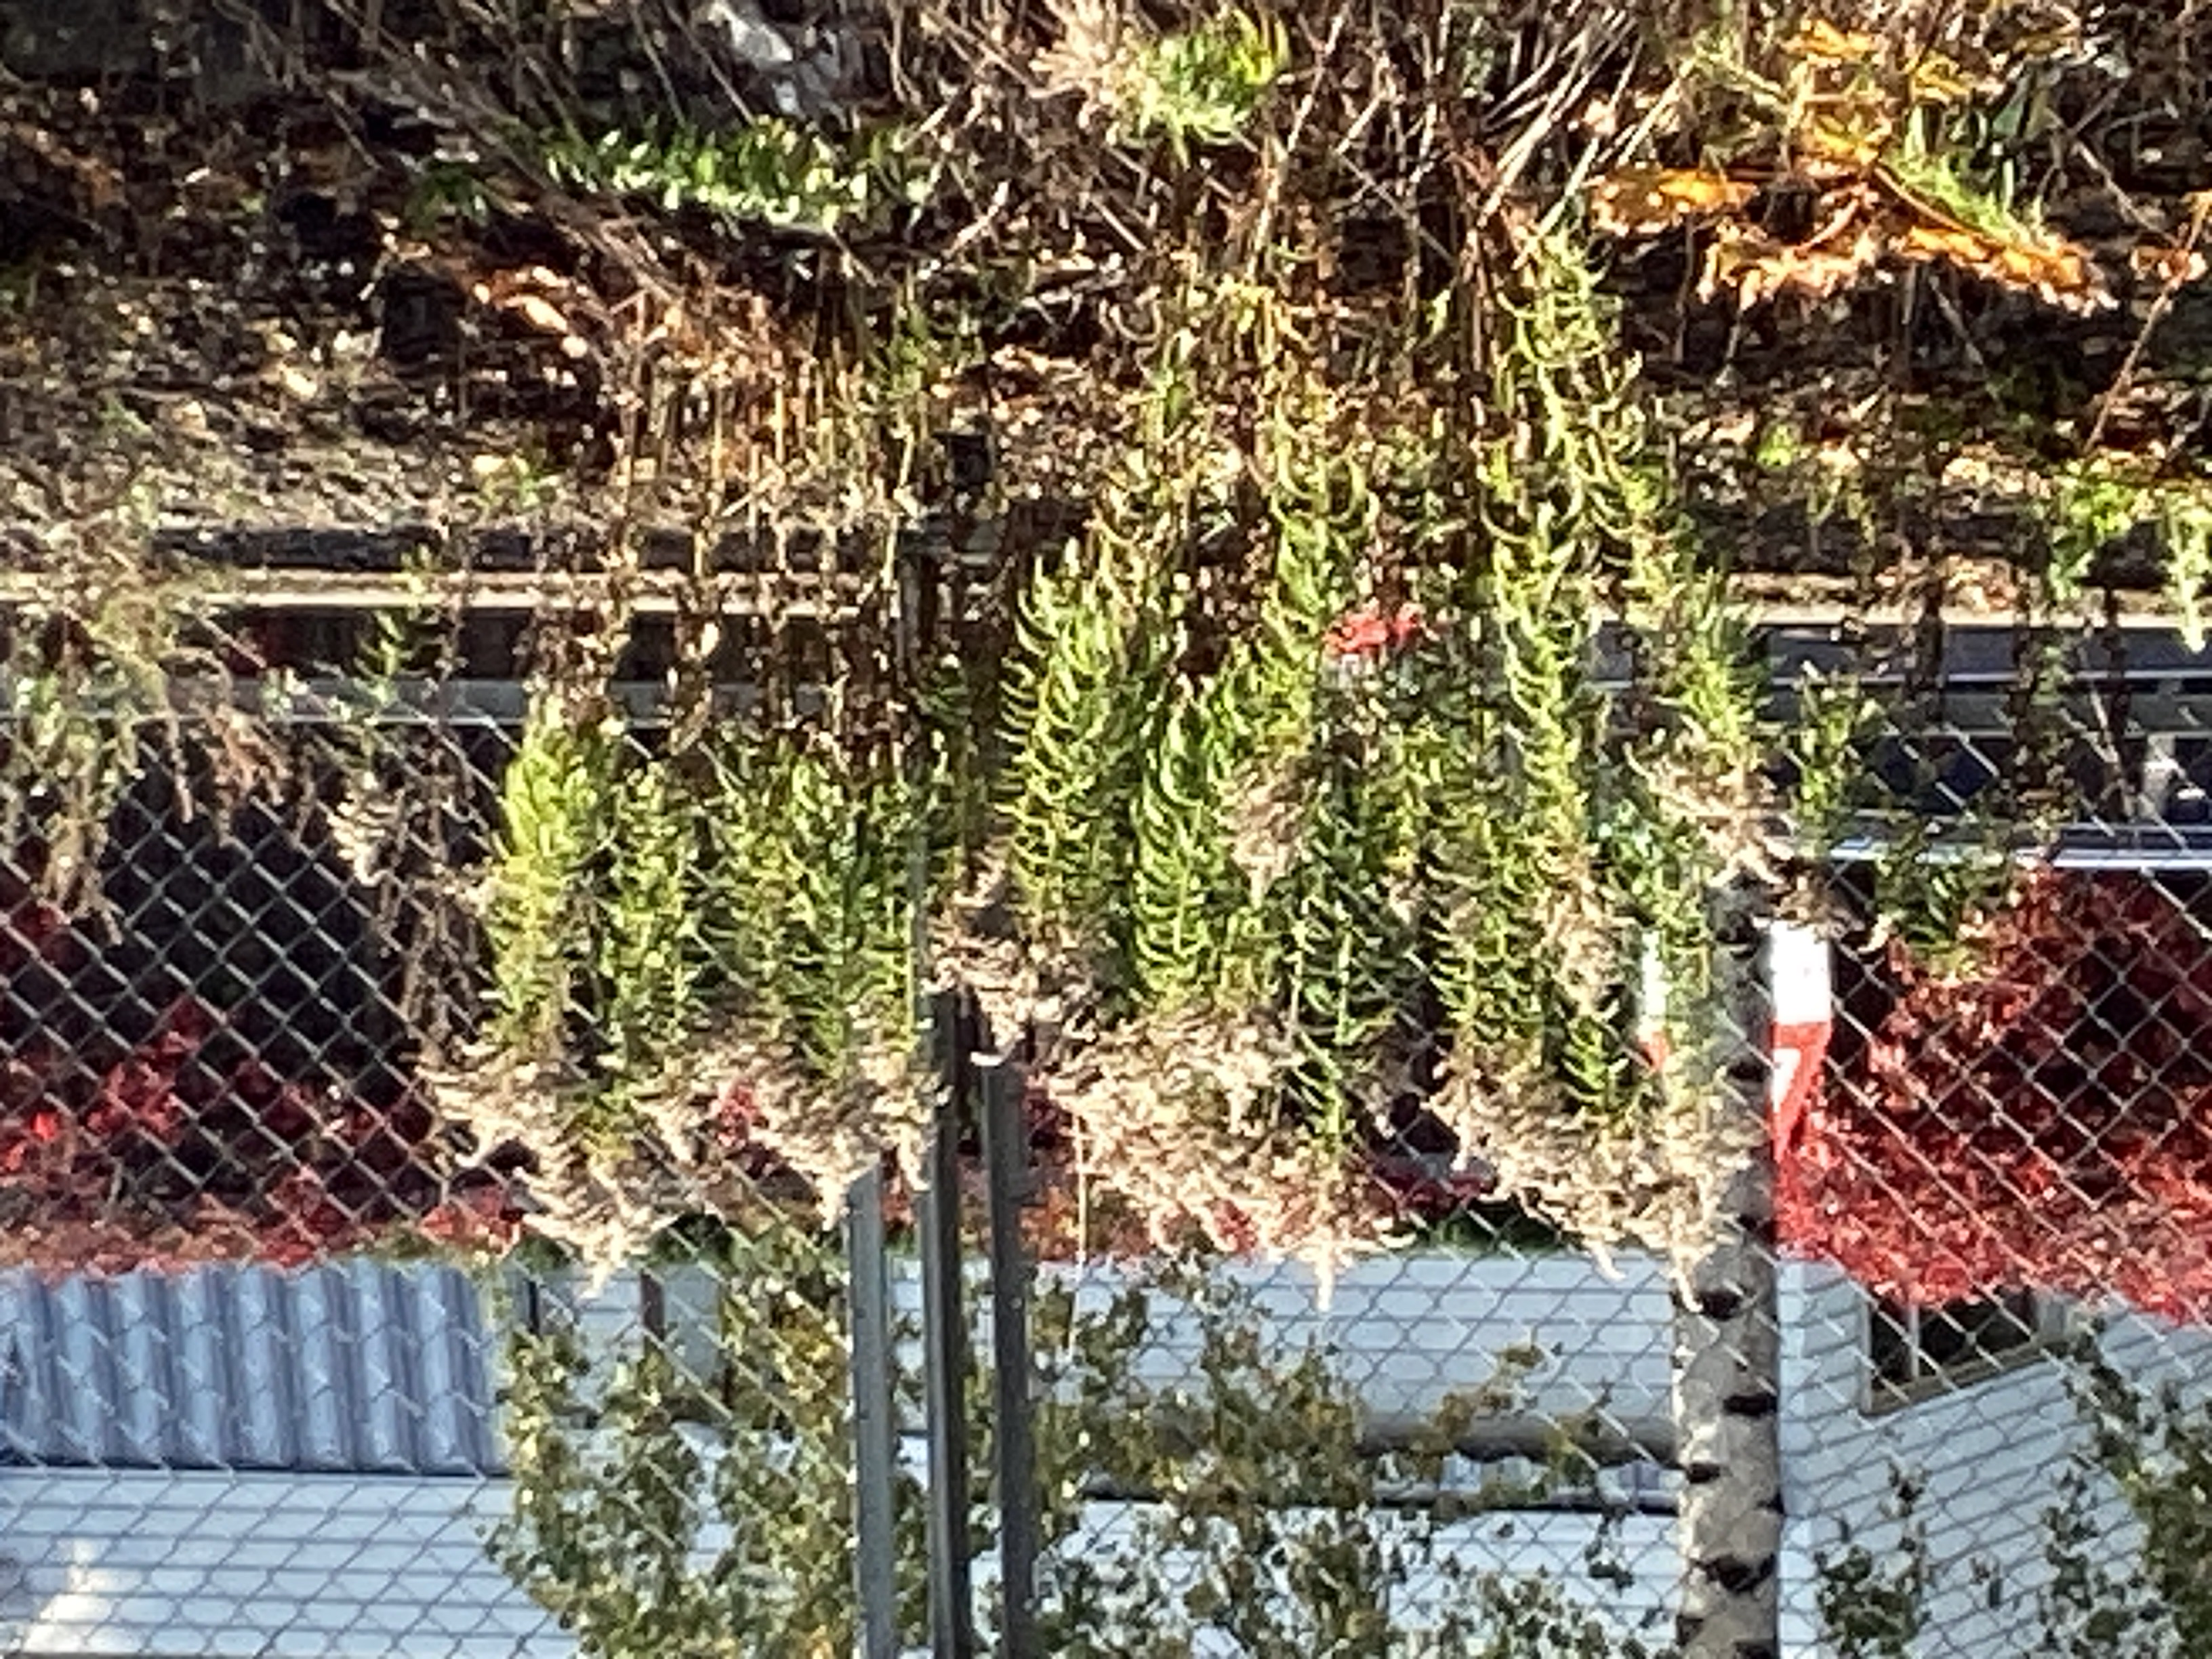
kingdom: Plantae
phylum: Tracheophyta
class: Magnoliopsida
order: Asterales
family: Asteraceae
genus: Solidago
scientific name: Solidago canadensis
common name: kanadagullris
